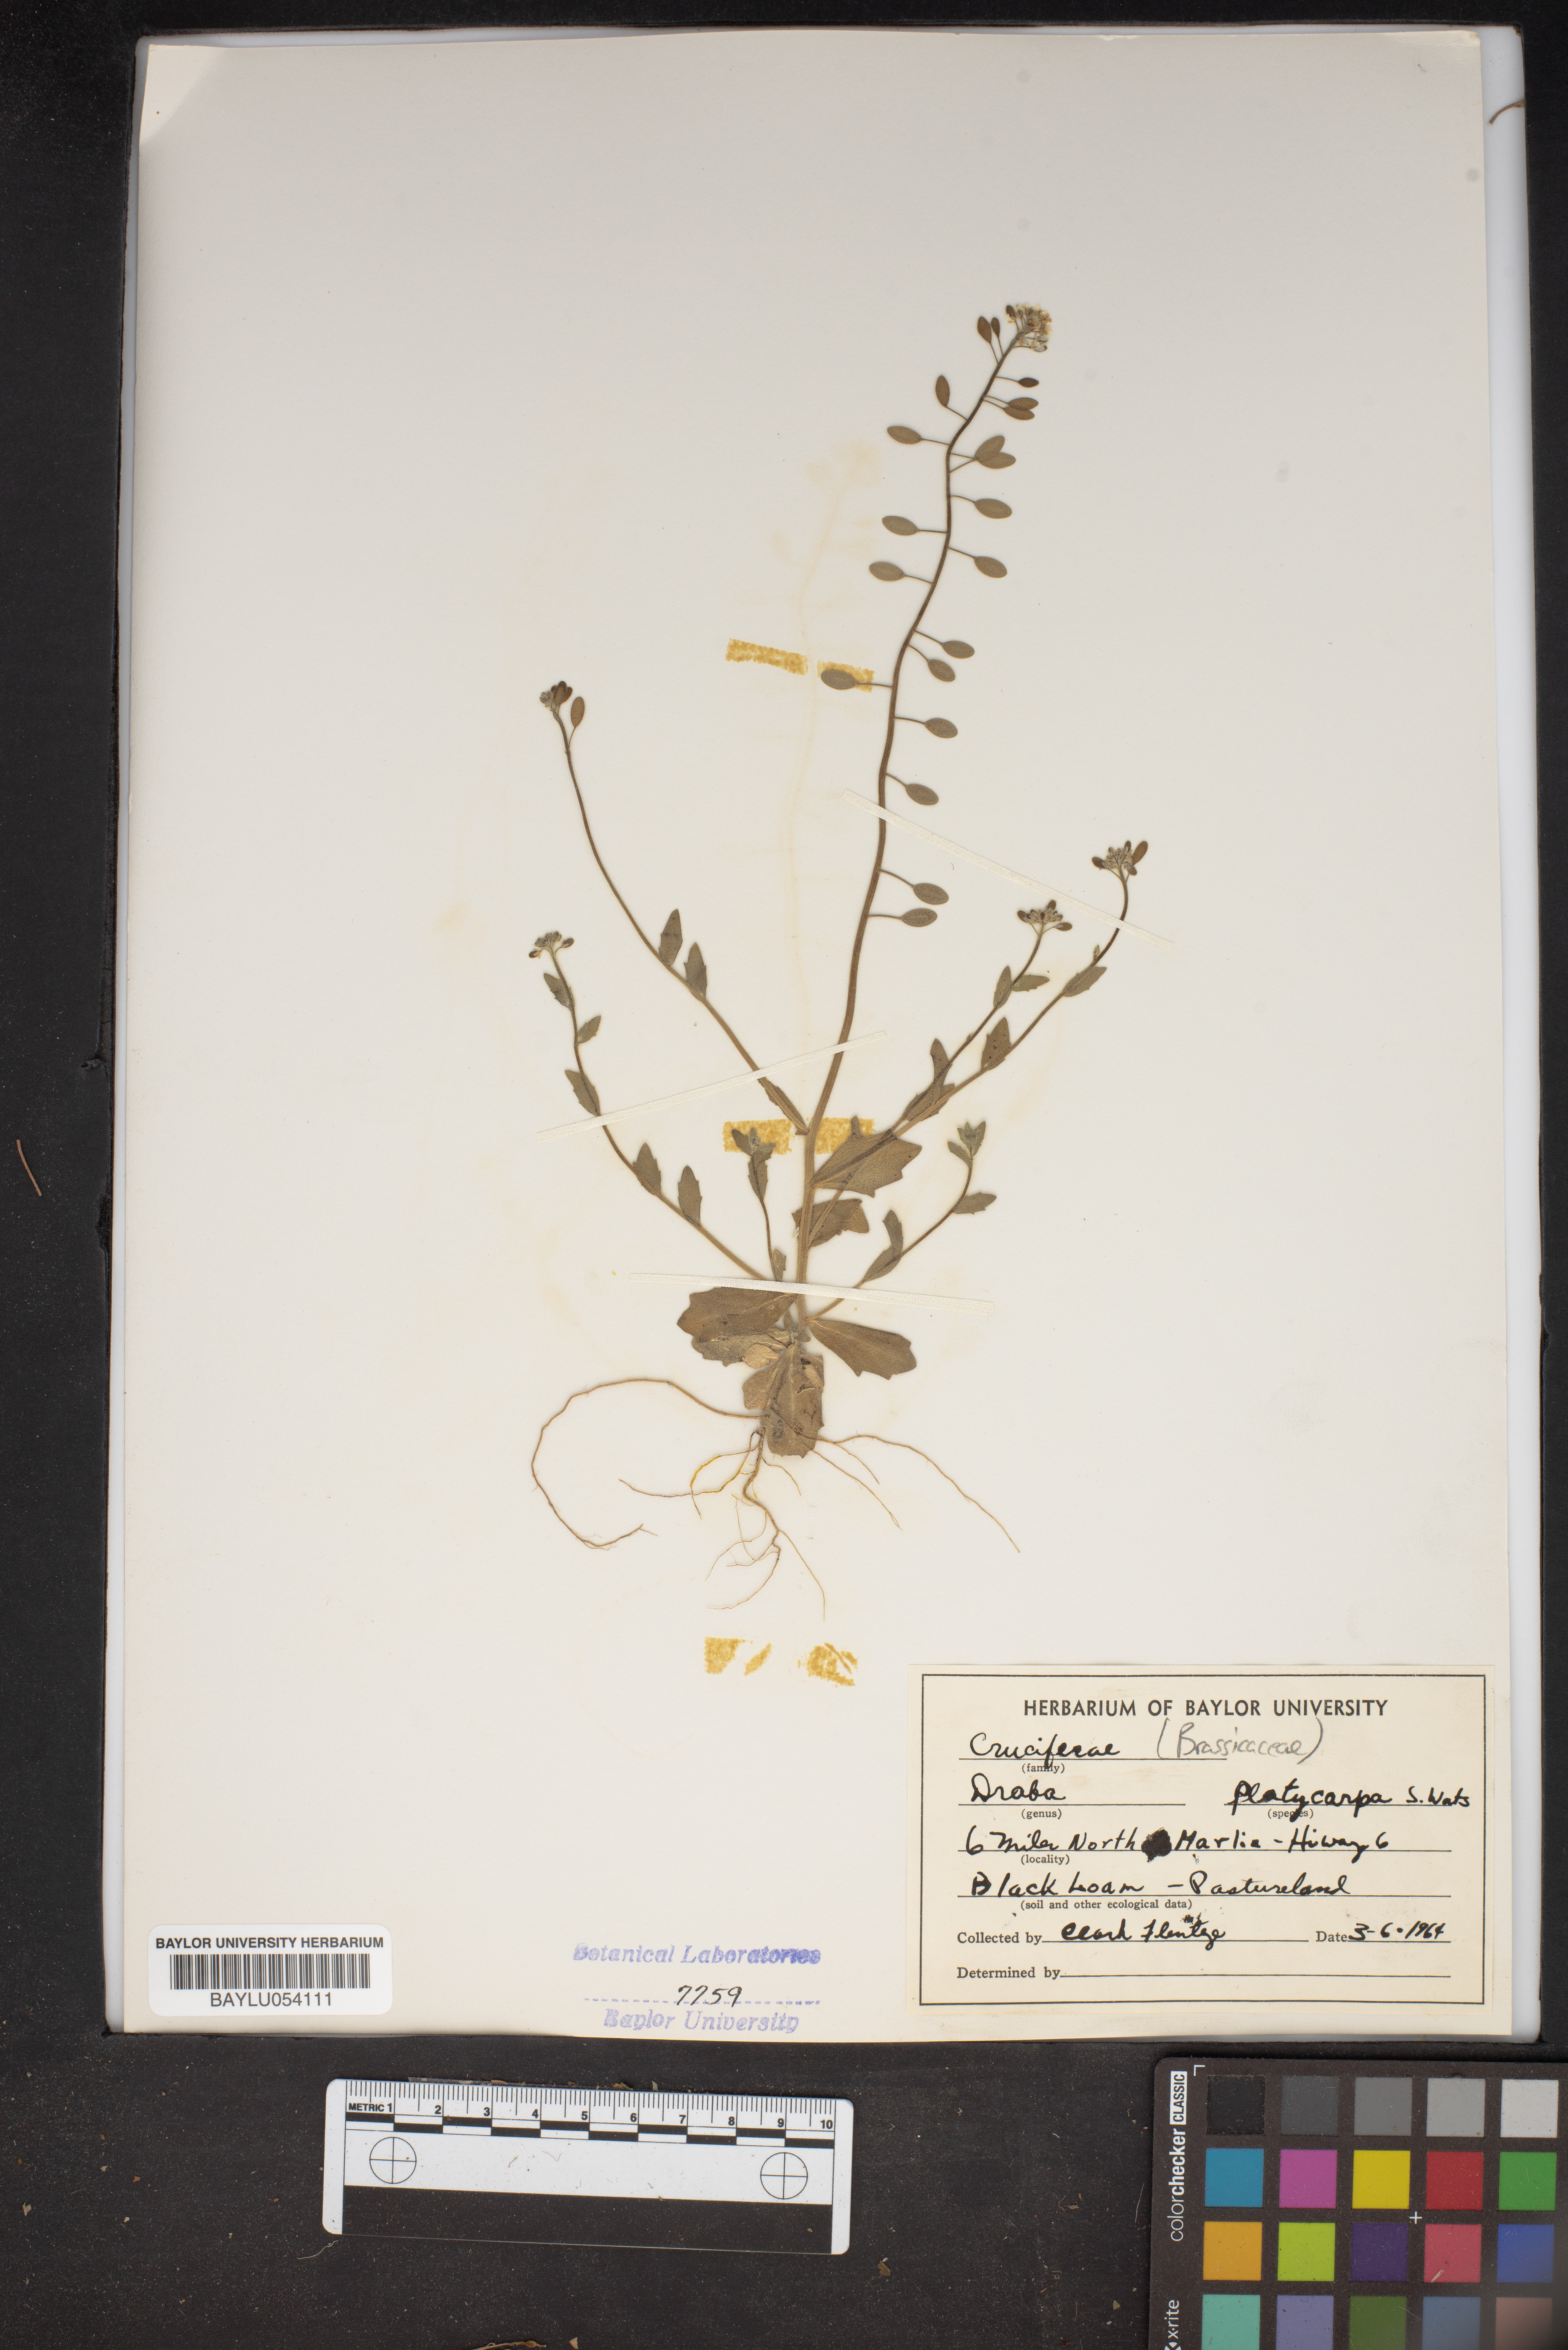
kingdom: Plantae
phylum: Tracheophyta
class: Magnoliopsida
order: Brassicales
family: Brassicaceae
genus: Tomostima
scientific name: Tomostima platycarpa
